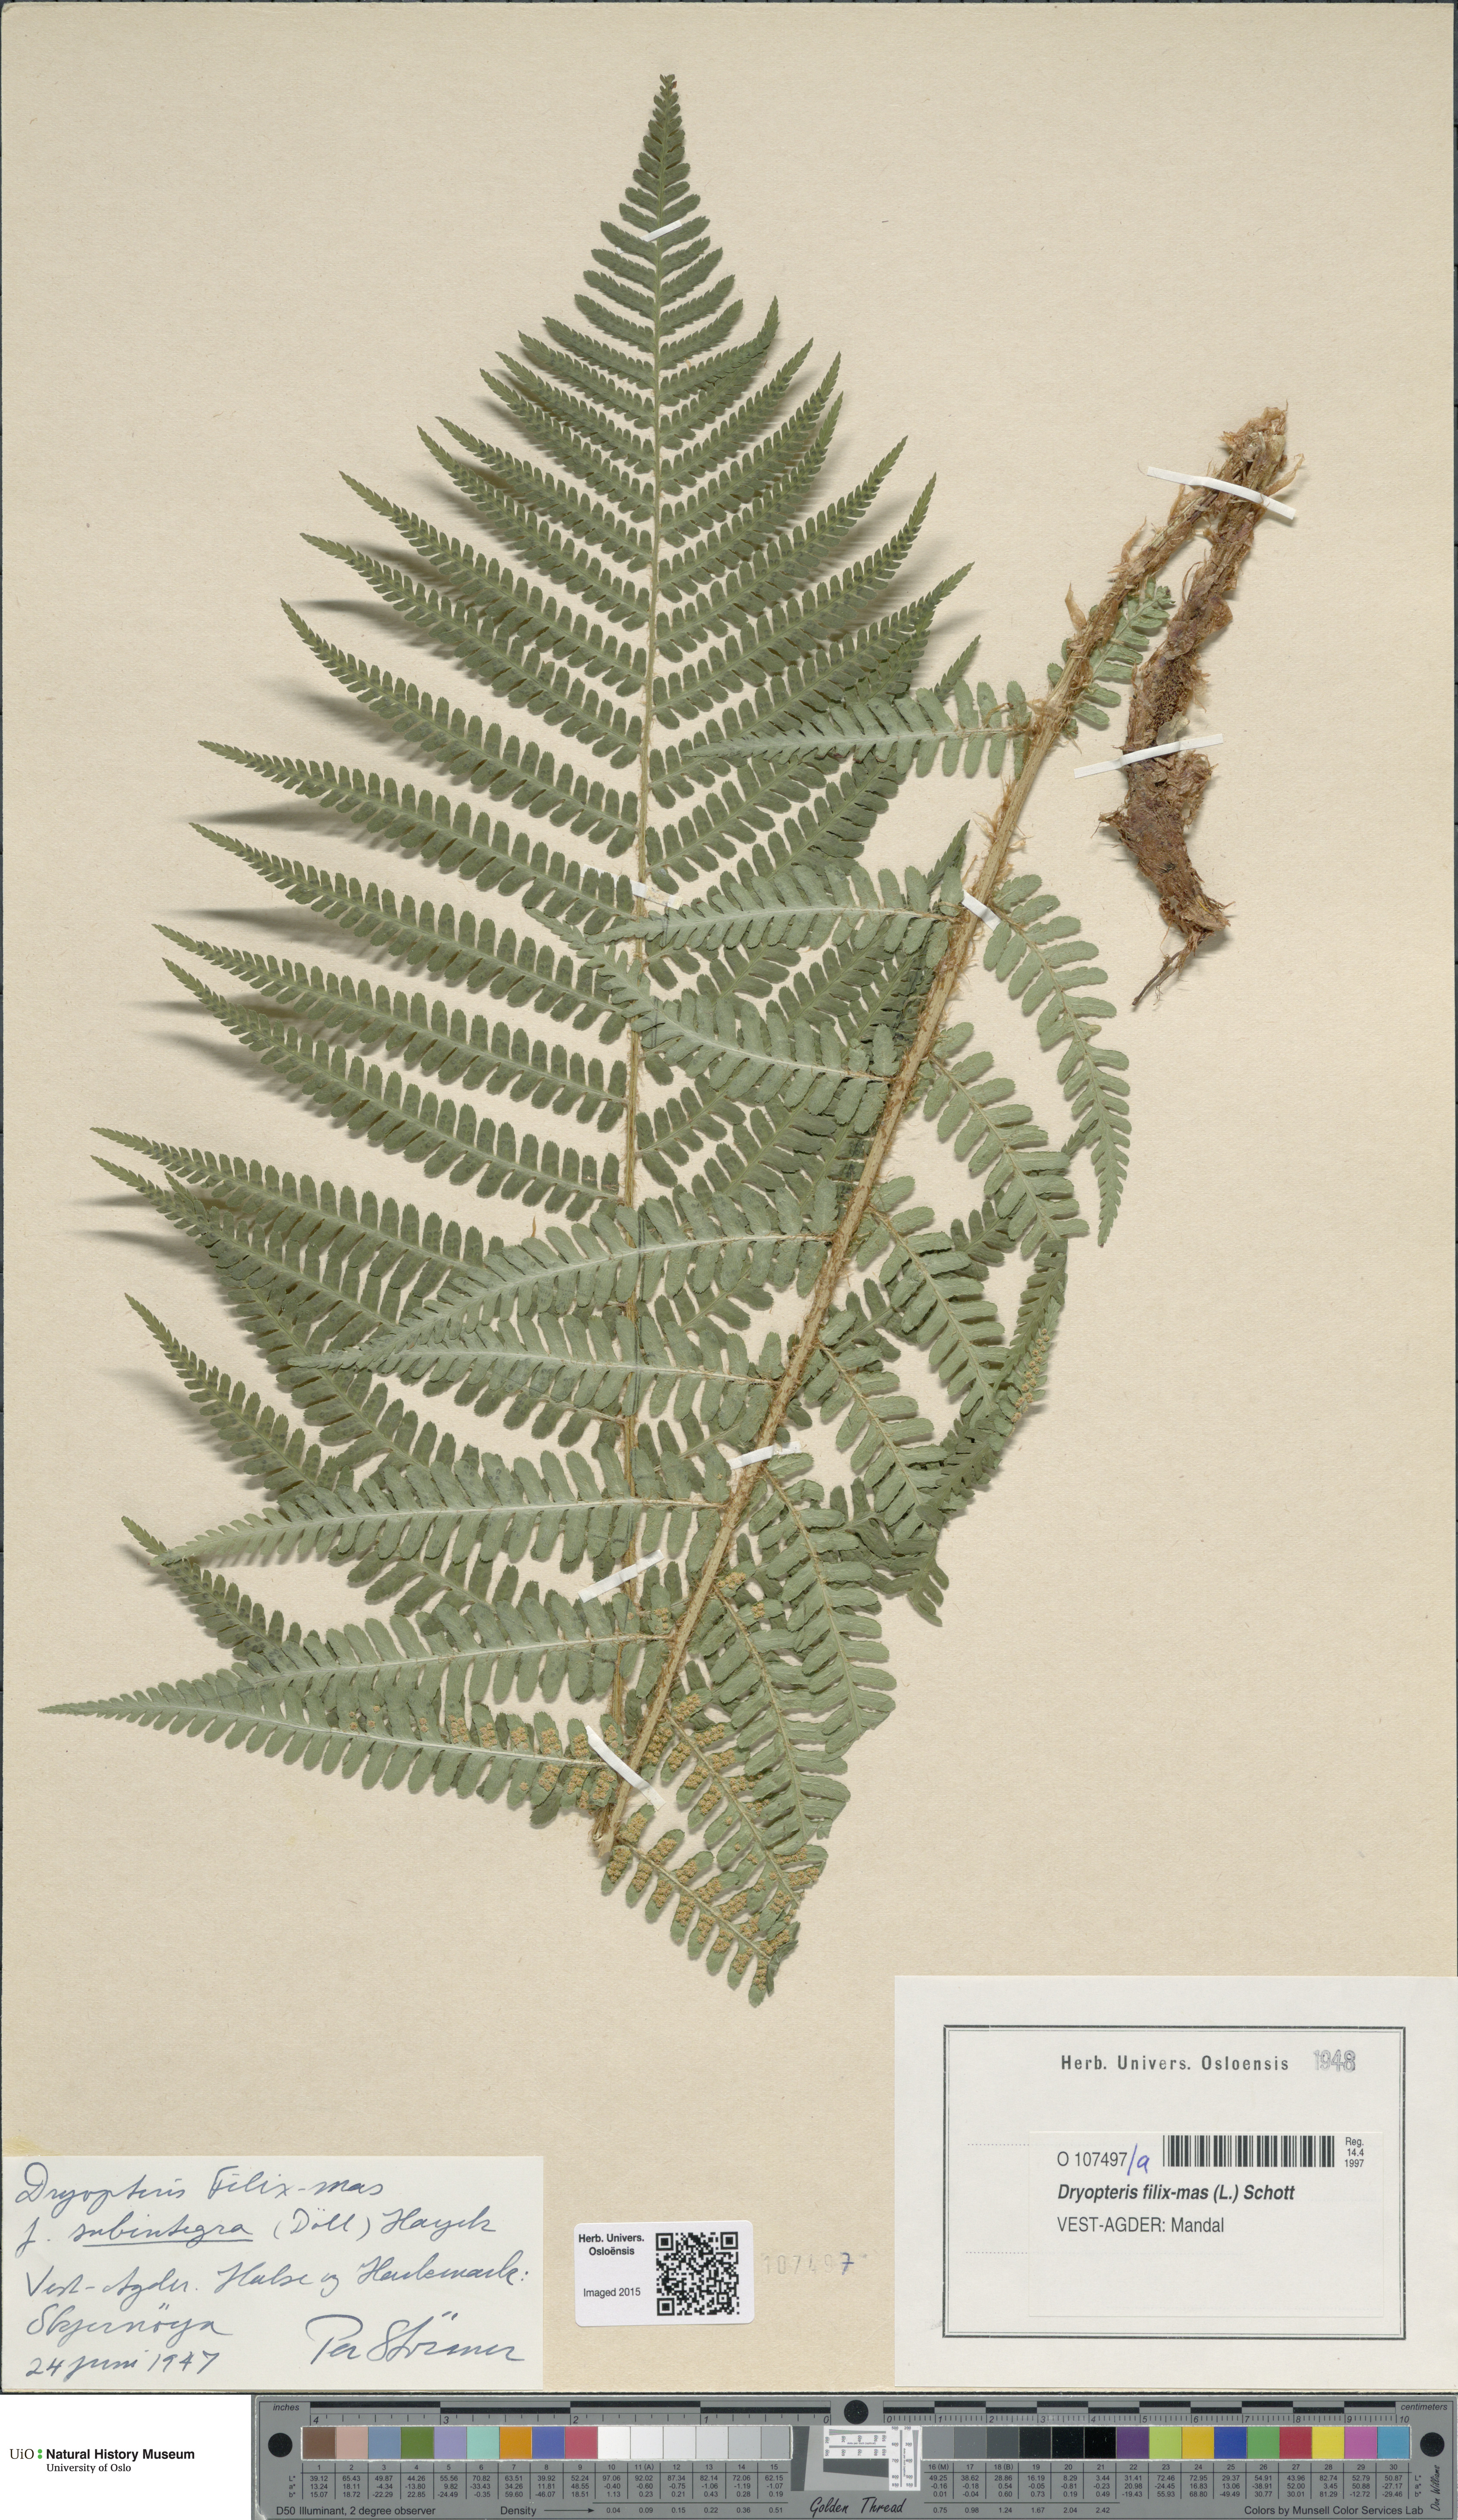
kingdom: Plantae
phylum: Tracheophyta
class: Polypodiopsida
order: Polypodiales
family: Dryopteridaceae
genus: Dryopteris
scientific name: Dryopteris filix-mas
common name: Male fern
